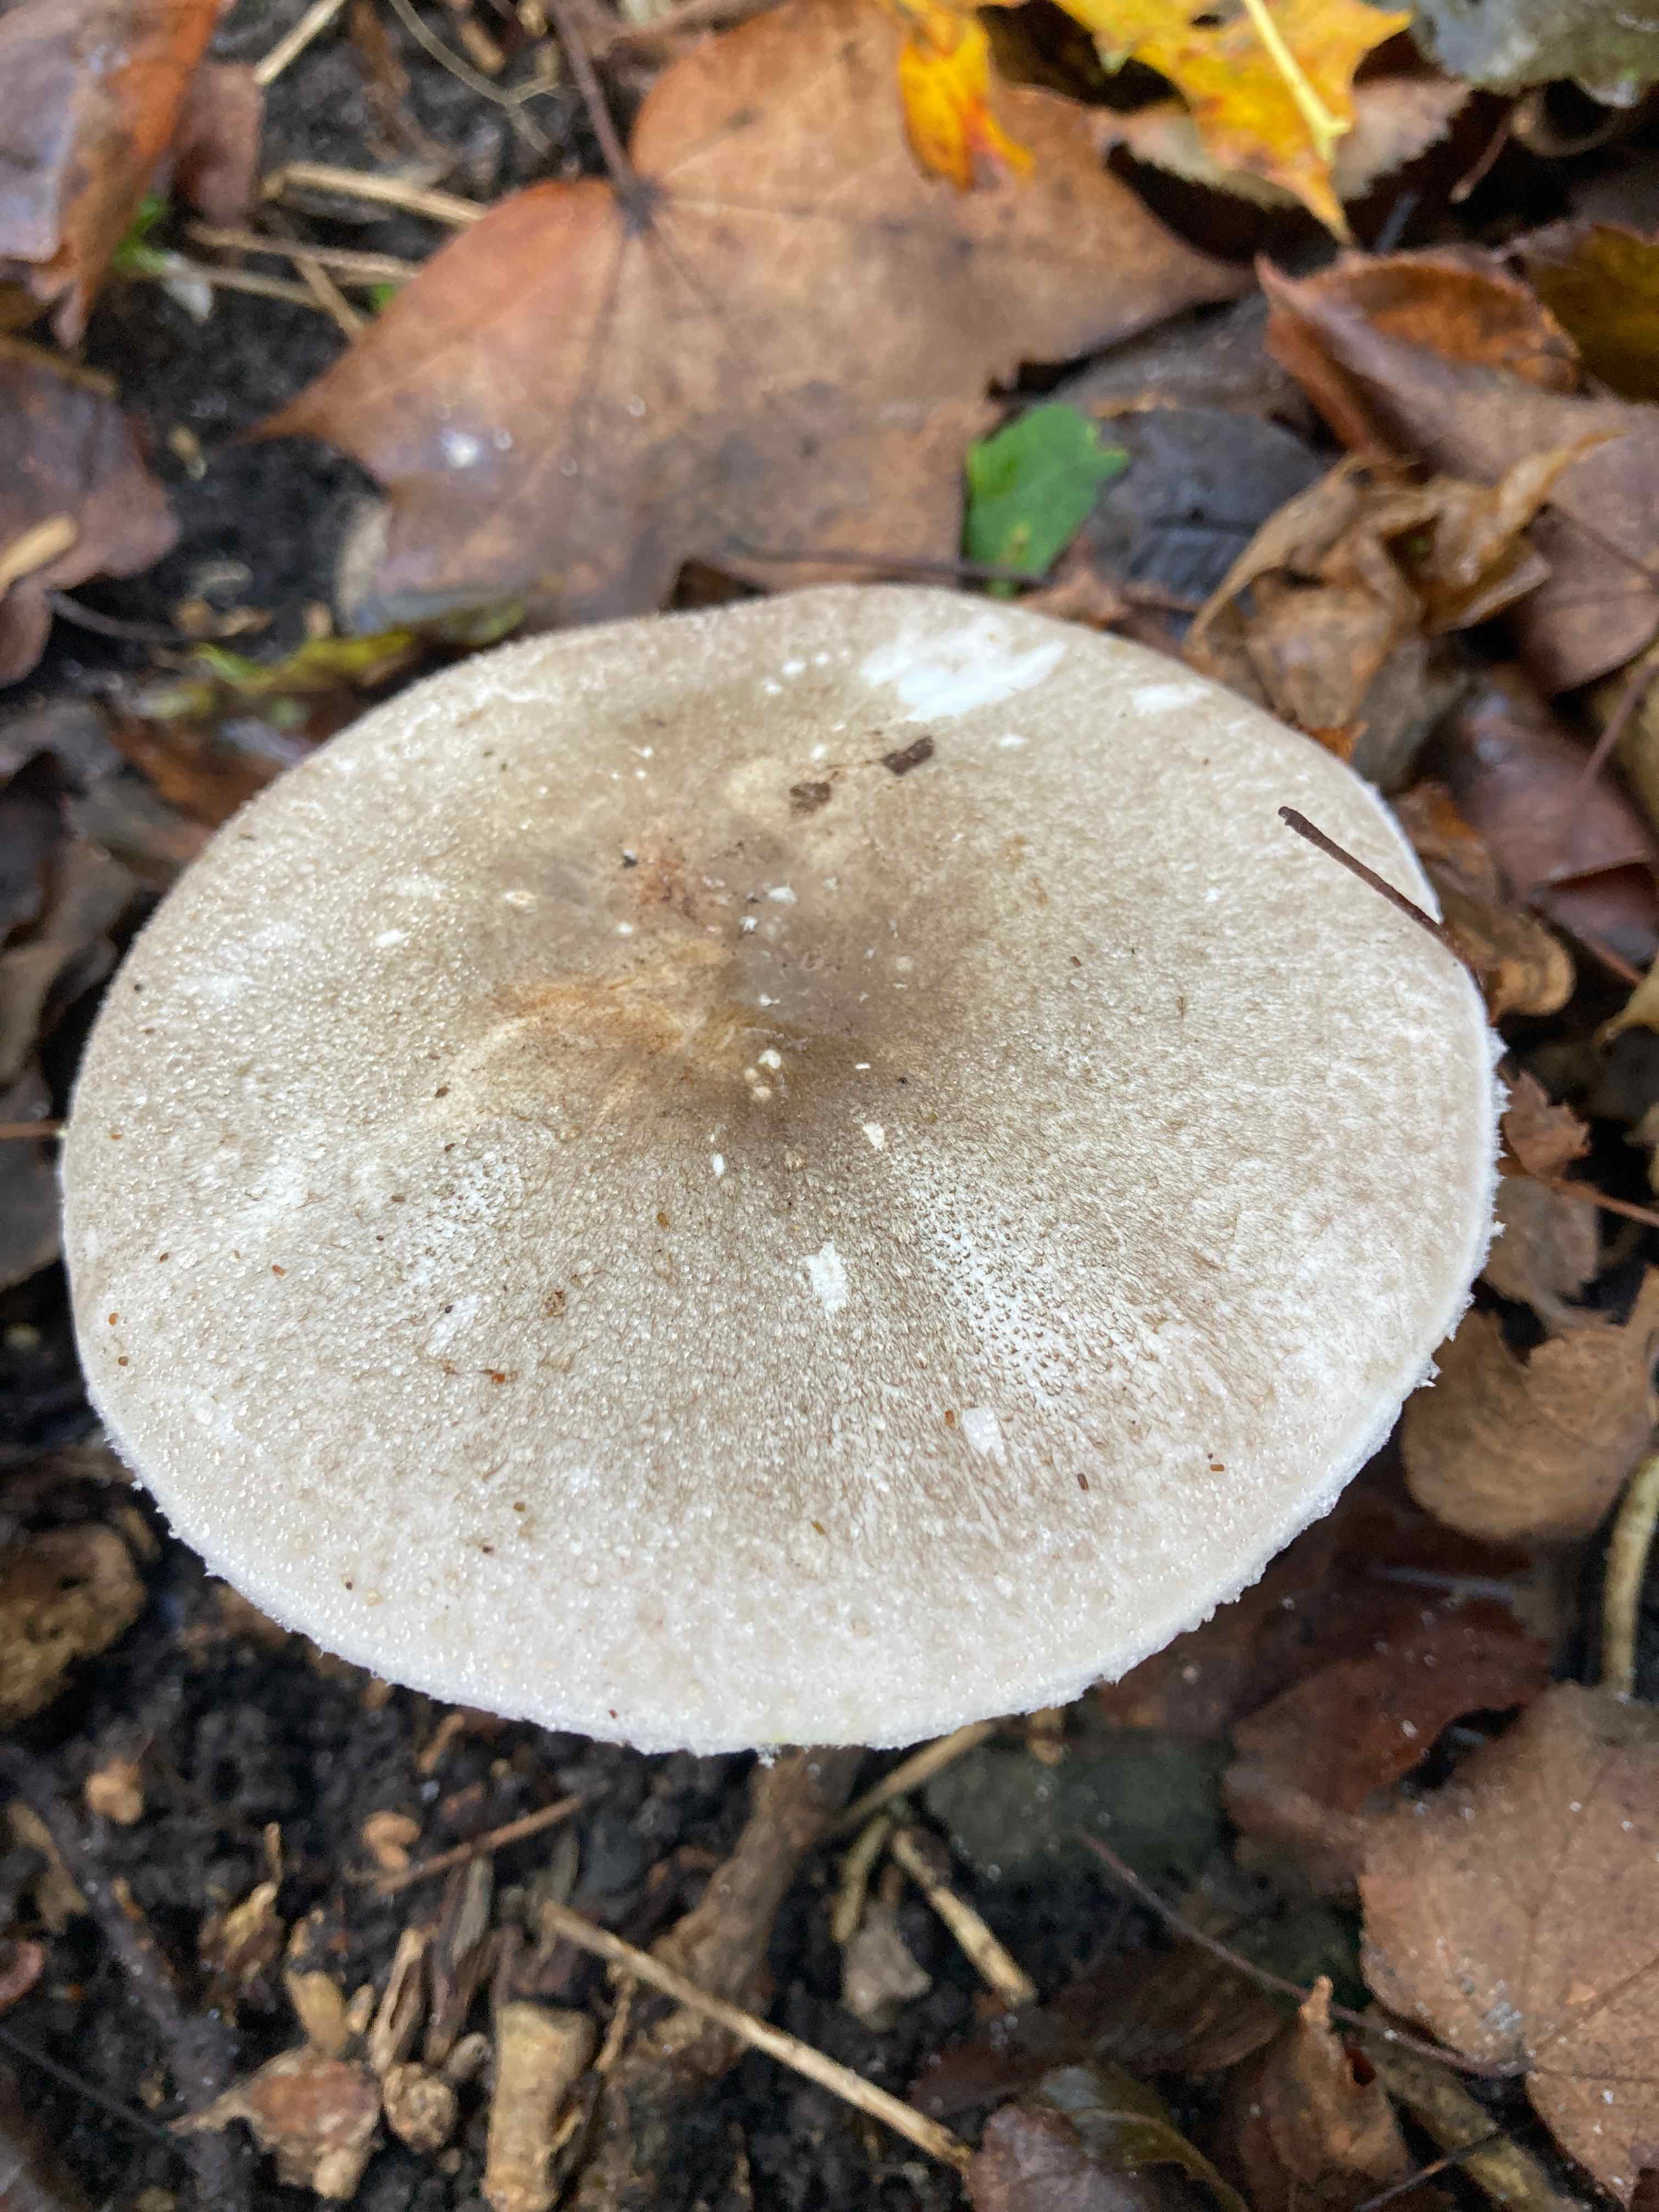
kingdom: Fungi
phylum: Basidiomycota
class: Agaricomycetes
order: Agaricales
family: Agaricaceae
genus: Agaricus
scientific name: Agaricus moelleri
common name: perlehøne-champignon
